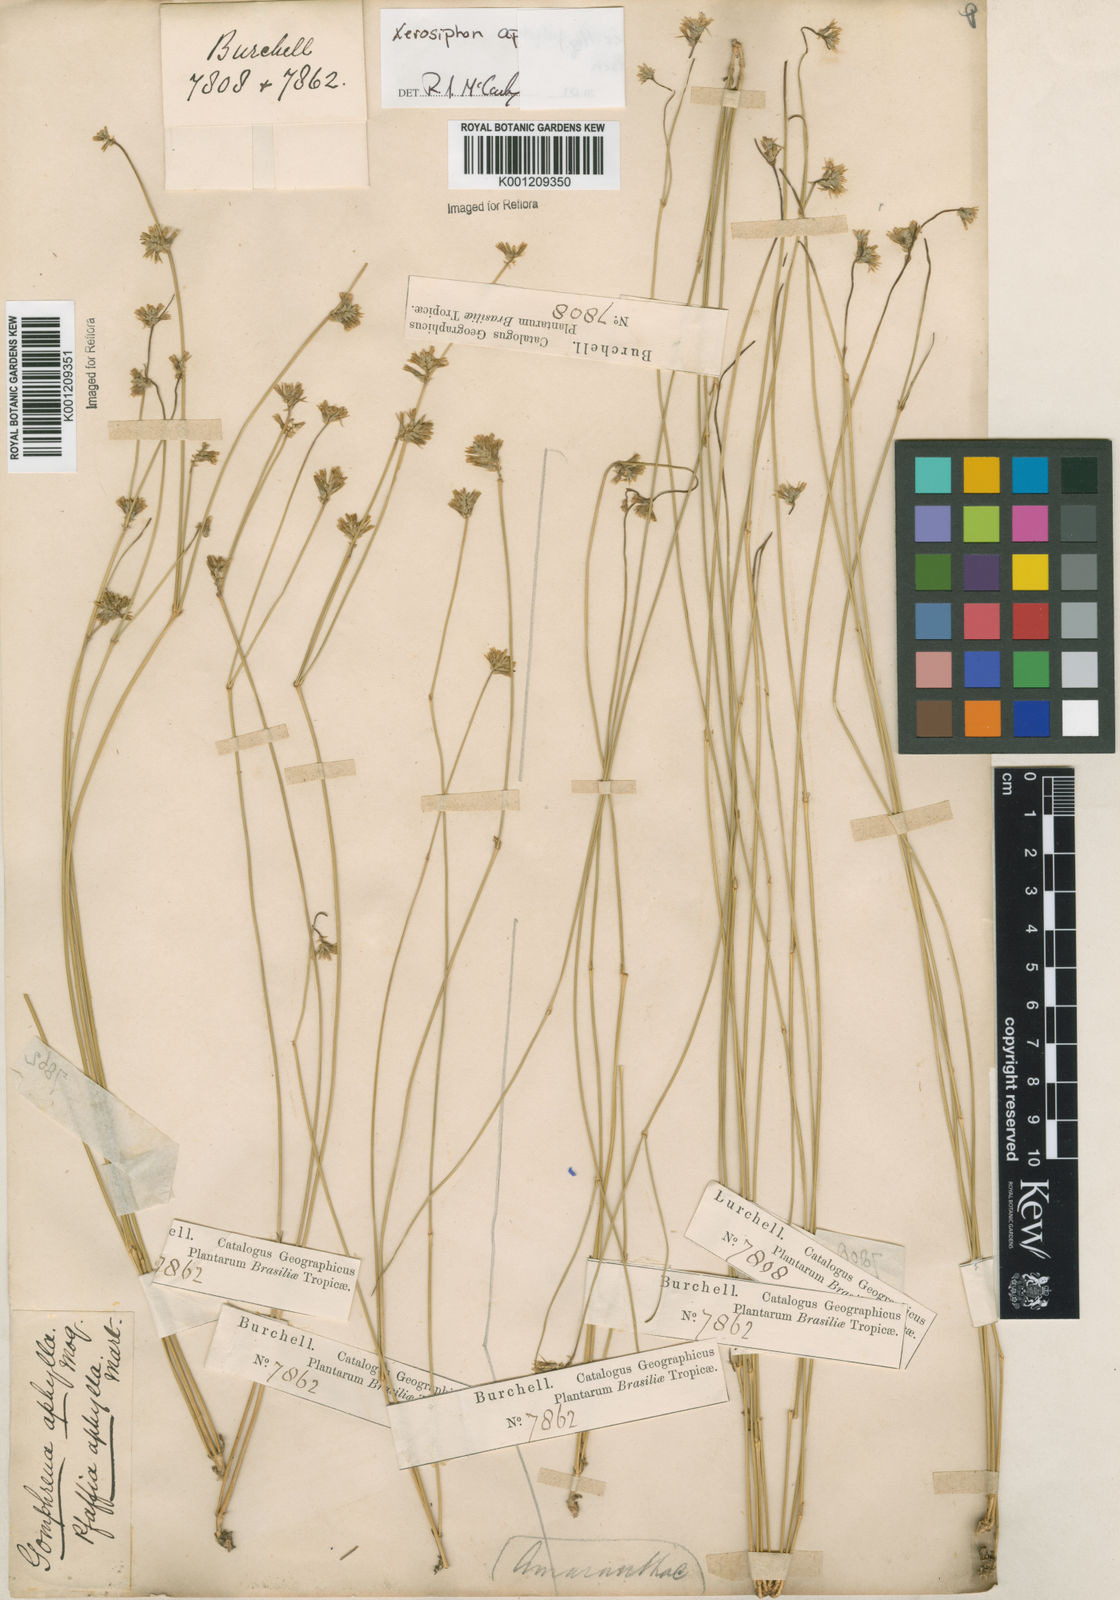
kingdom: Plantae
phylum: Tracheophyta
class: Magnoliopsida
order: Caryophyllales
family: Amaranthaceae
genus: Gomphrena
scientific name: Gomphrena aphylla
